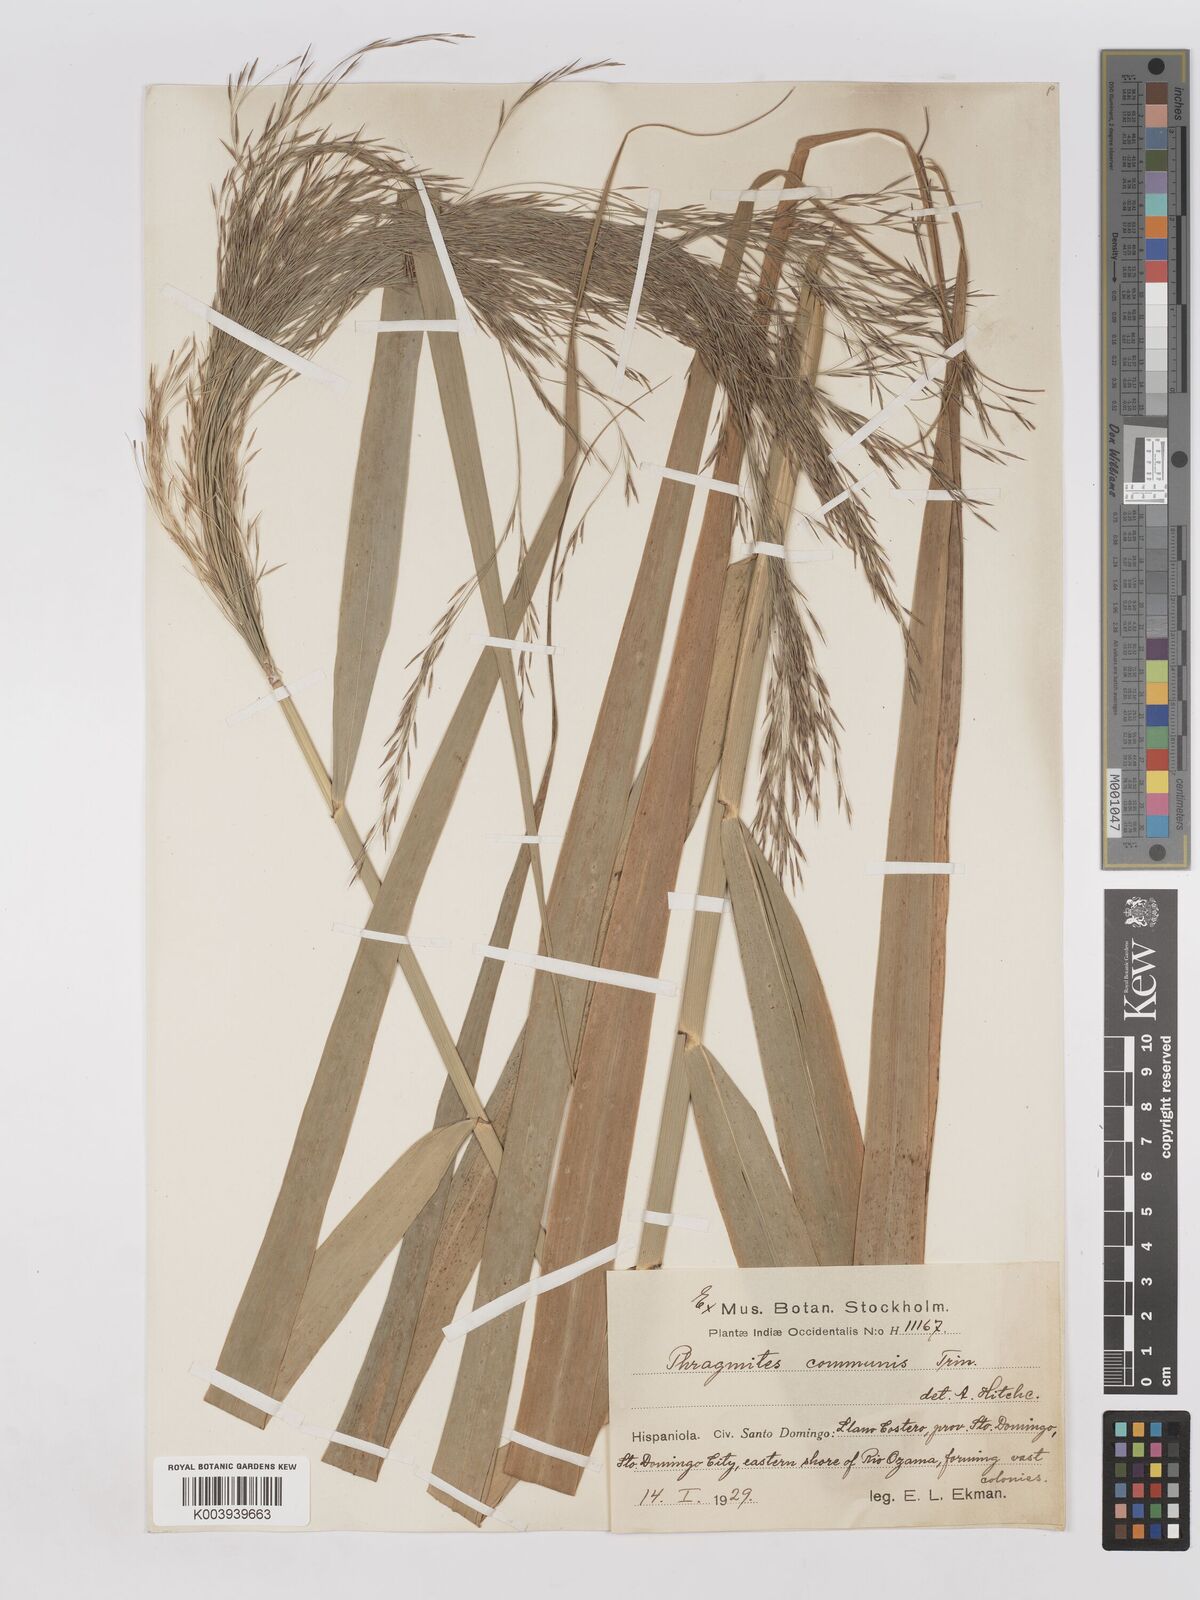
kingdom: Plantae
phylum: Tracheophyta
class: Liliopsida
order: Poales
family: Poaceae
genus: Phragmites
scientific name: Phragmites australis
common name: Common reed
